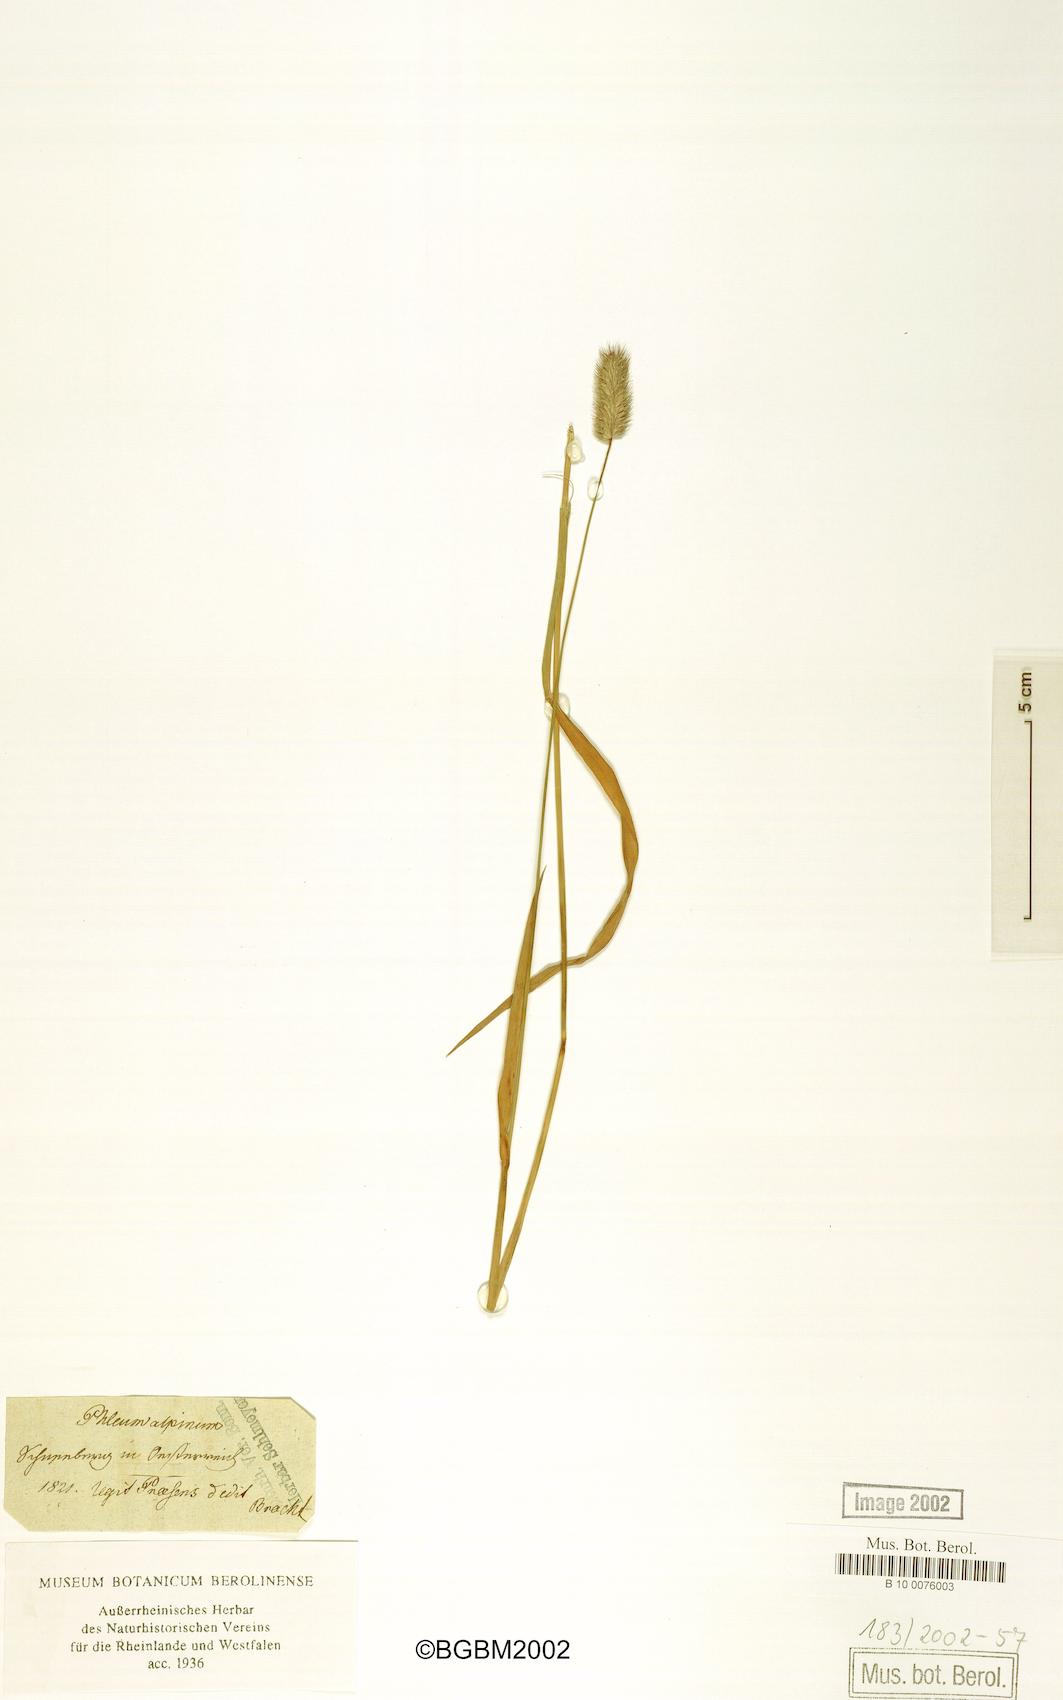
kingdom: Plantae
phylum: Tracheophyta
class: Liliopsida
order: Poales
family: Poaceae
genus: Phleum
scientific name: Phleum alpinum
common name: Alpine cat's-tail
